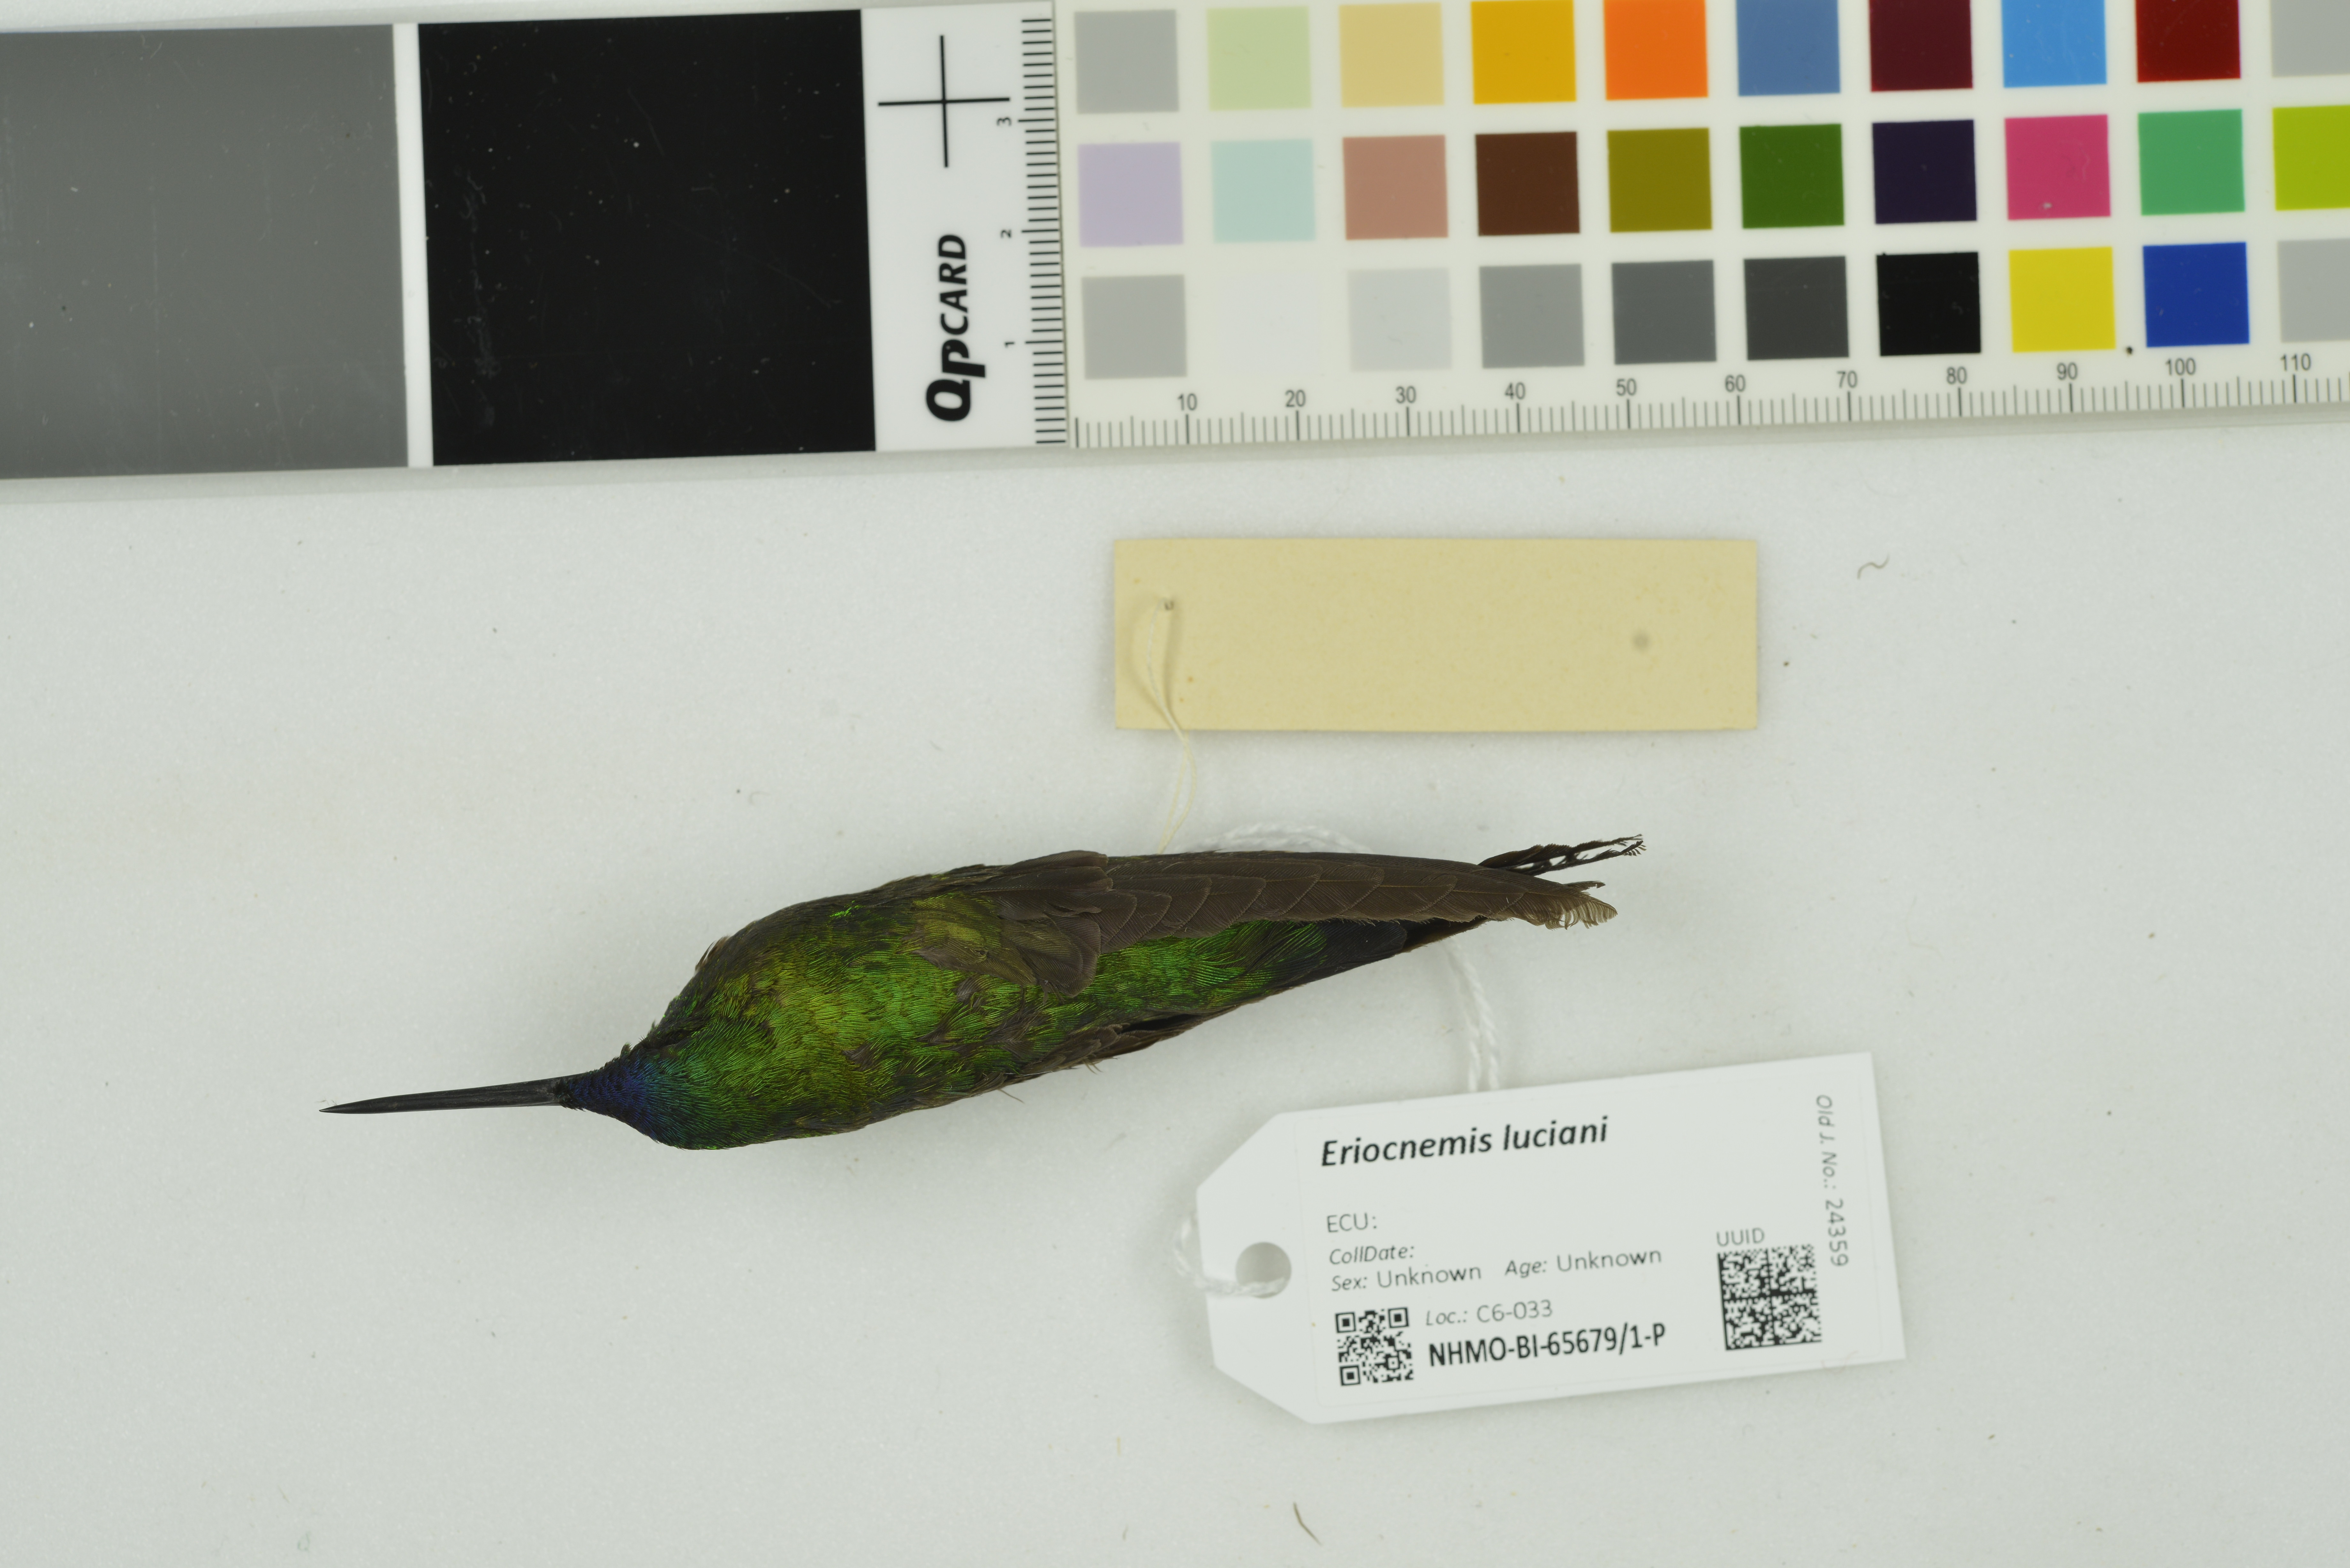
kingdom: Animalia
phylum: Chordata
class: Aves
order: Apodiformes
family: Trochilidae
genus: Eriocnemis
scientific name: Eriocnemis luciani
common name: Sapphire-vented puffleg
